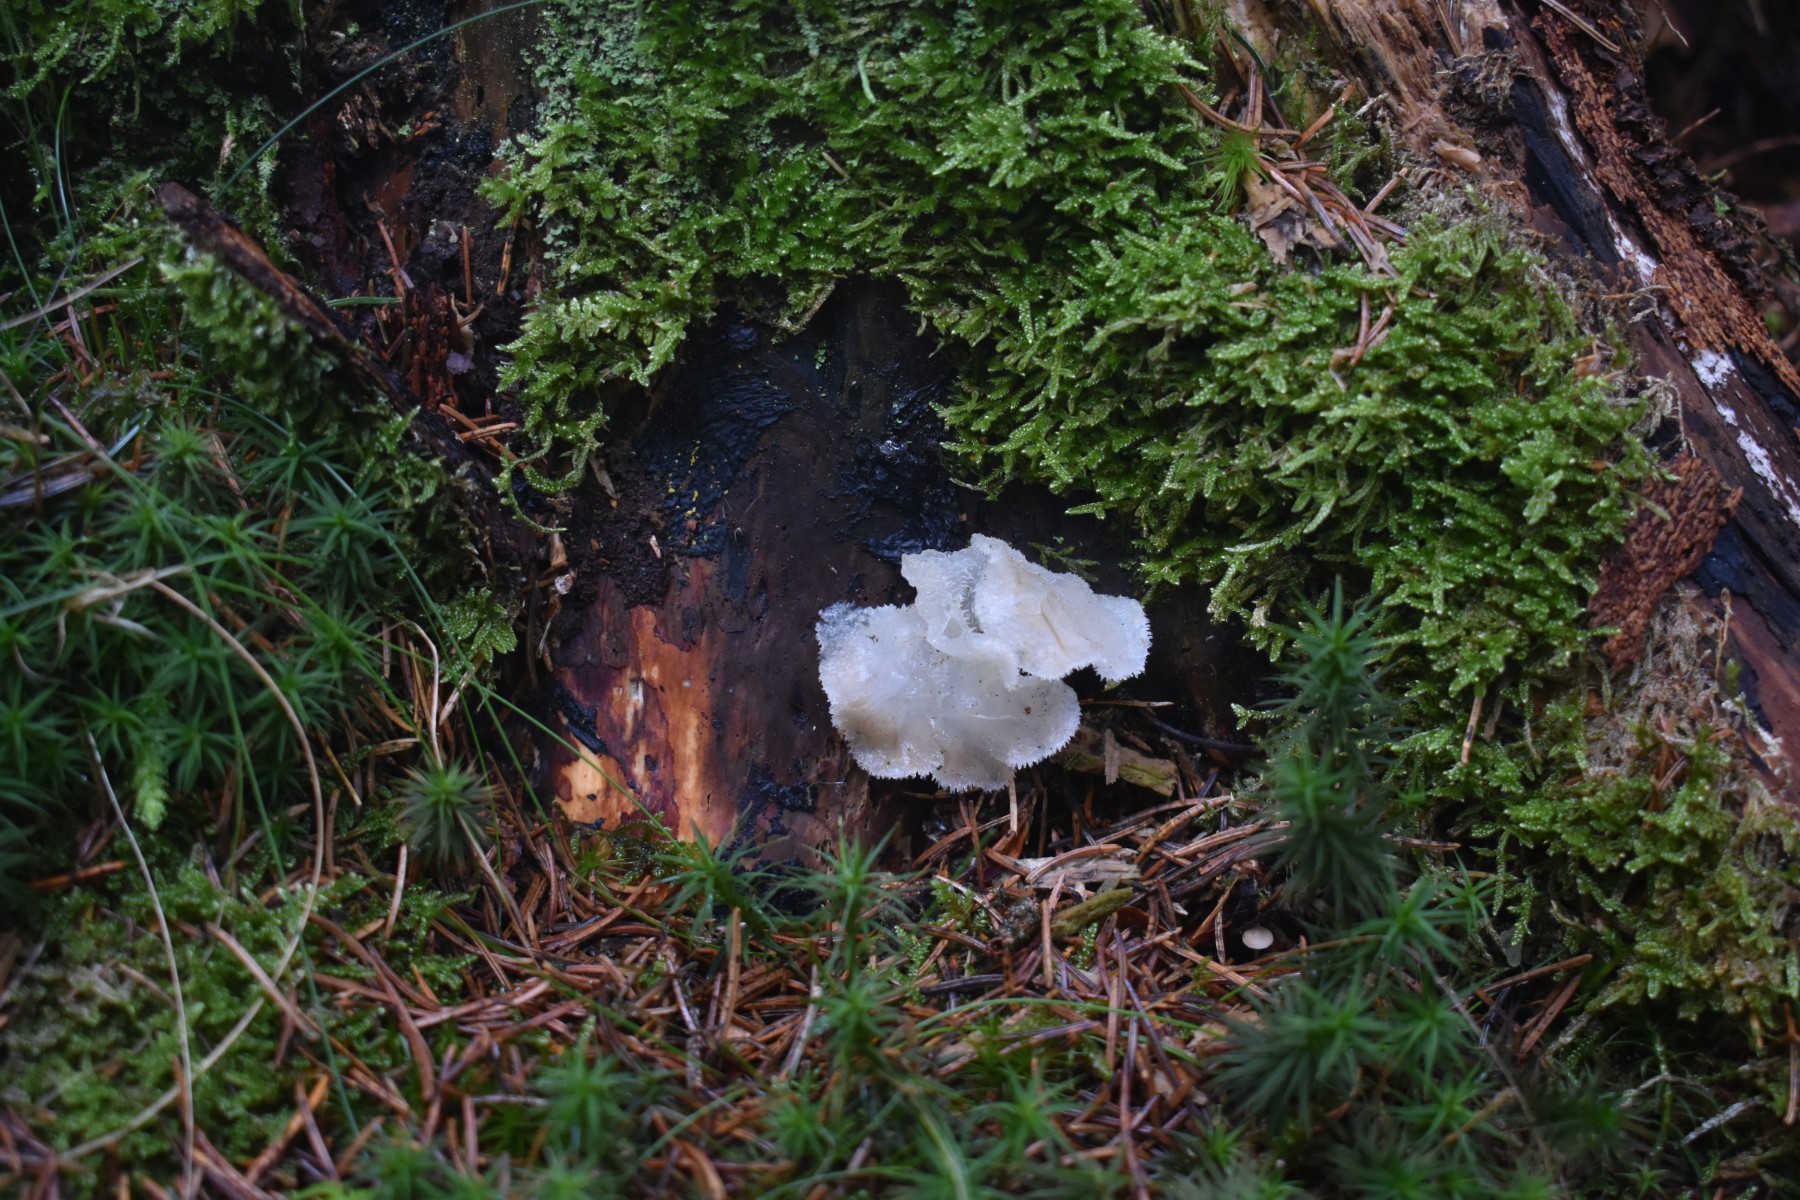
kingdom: Fungi
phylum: Basidiomycota
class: Agaricomycetes
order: Auriculariales
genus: Pseudohydnum
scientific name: Pseudohydnum gelatinosum
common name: bævretand
